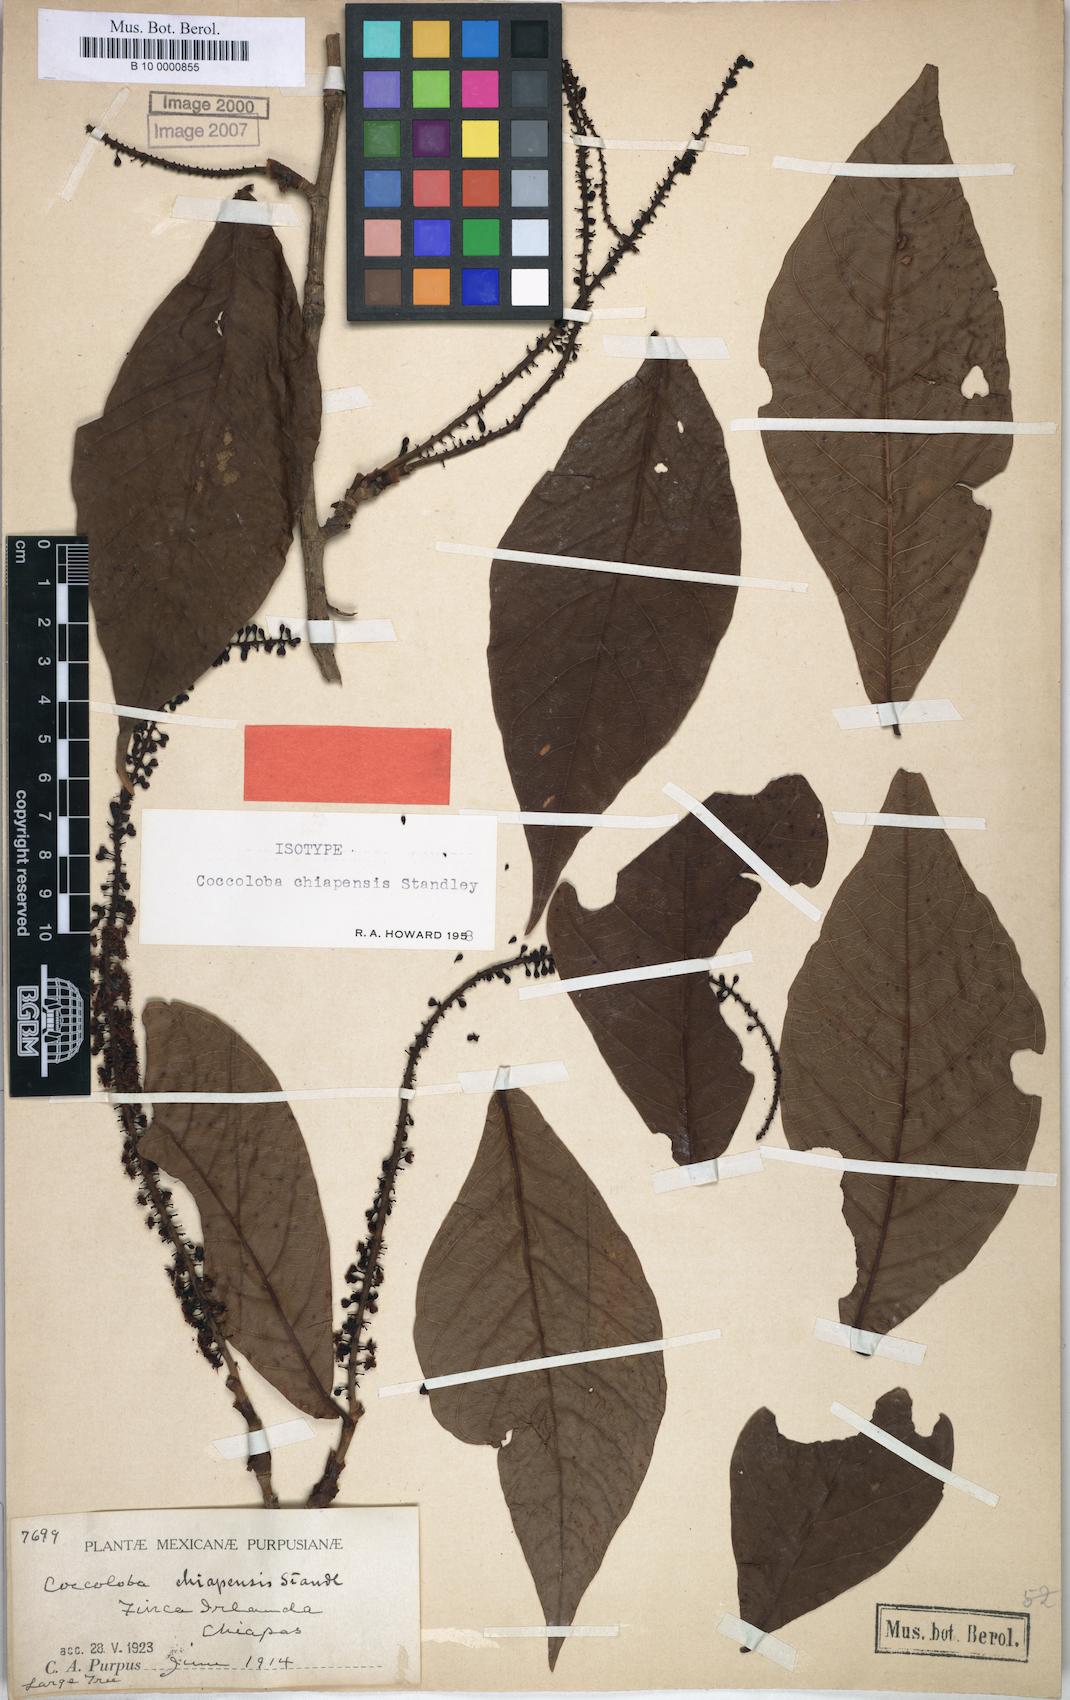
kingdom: Plantae
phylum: Tracheophyta
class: Magnoliopsida
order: Caryophyllales
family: Polygonaceae
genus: Coccoloba
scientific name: Coccoloba chiapensis
